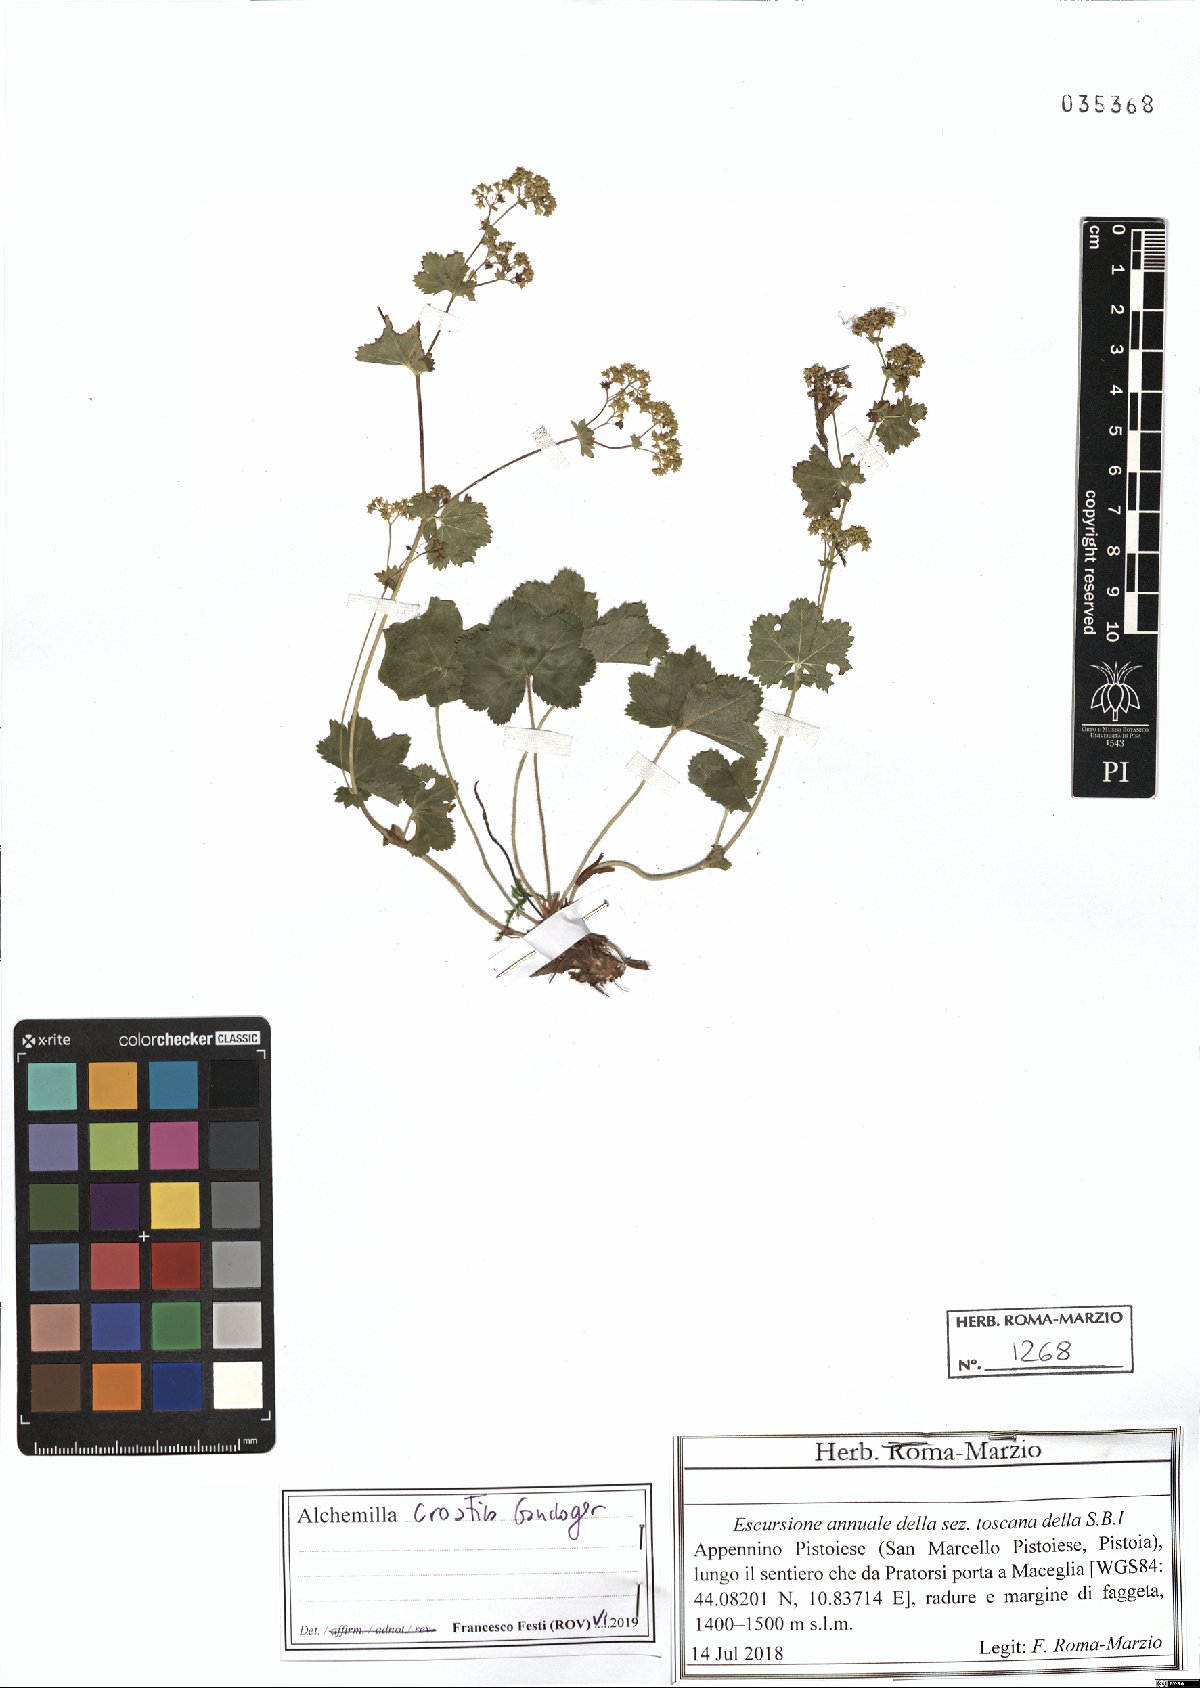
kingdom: Plantae
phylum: Tracheophyta
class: Magnoliopsida
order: Rosales
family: Rosaceae
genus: Alchemilla
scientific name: Alchemilla croatica
